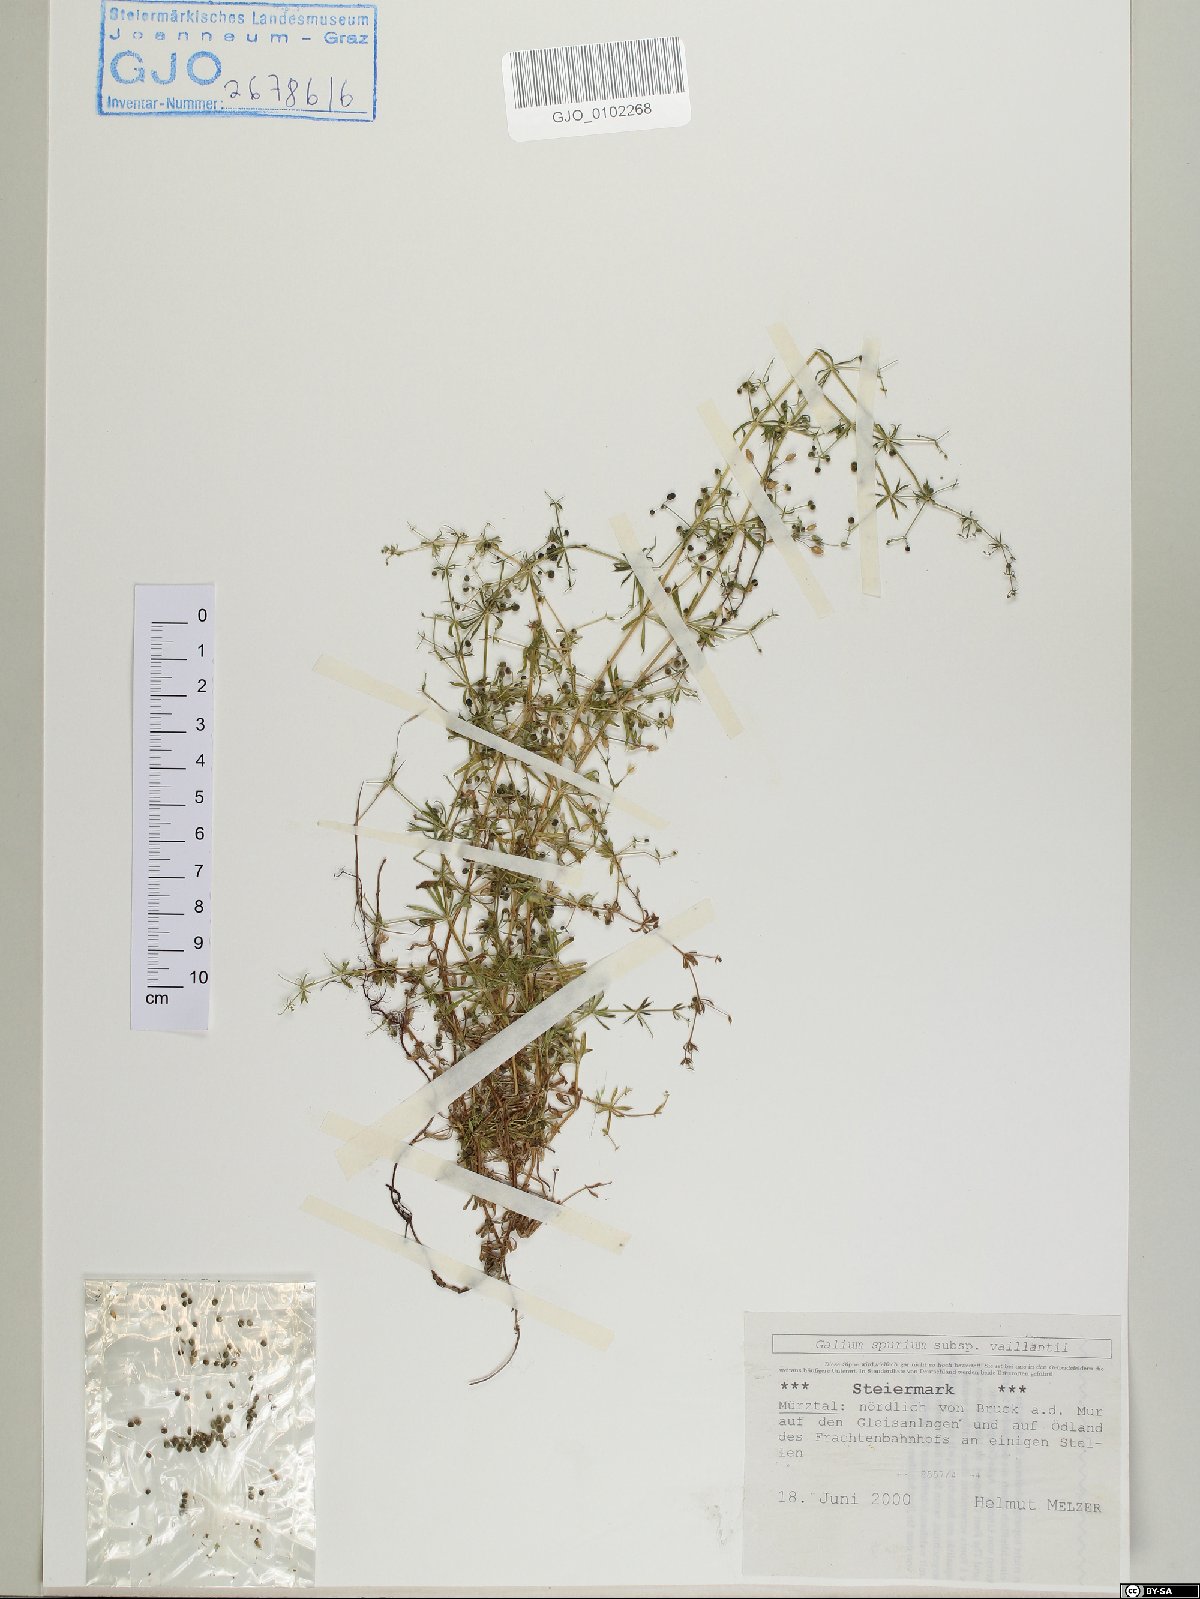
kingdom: Plantae
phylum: Tracheophyta
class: Magnoliopsida
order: Gentianales
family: Rubiaceae
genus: Galium
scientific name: Galium spurium
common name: False cleavers
